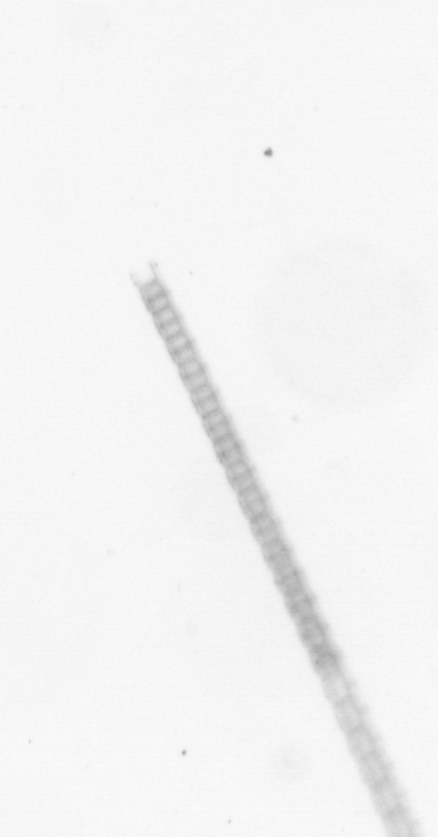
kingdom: Chromista
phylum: Ochrophyta
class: Bacillariophyceae
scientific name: Bacillariophyceae
